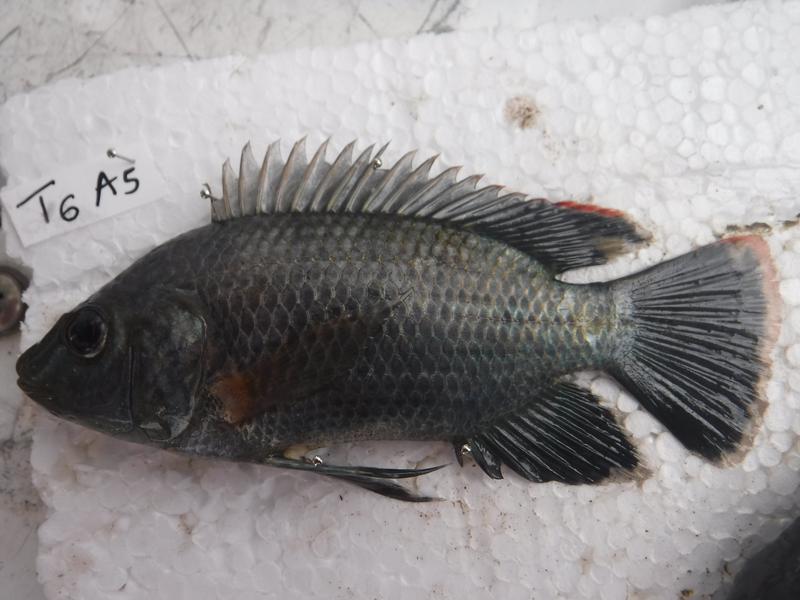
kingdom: Animalia
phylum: Chordata
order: Perciformes
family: Cichlidae
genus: Oreochromis
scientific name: Oreochromis urolepis
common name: Wami tilapia
